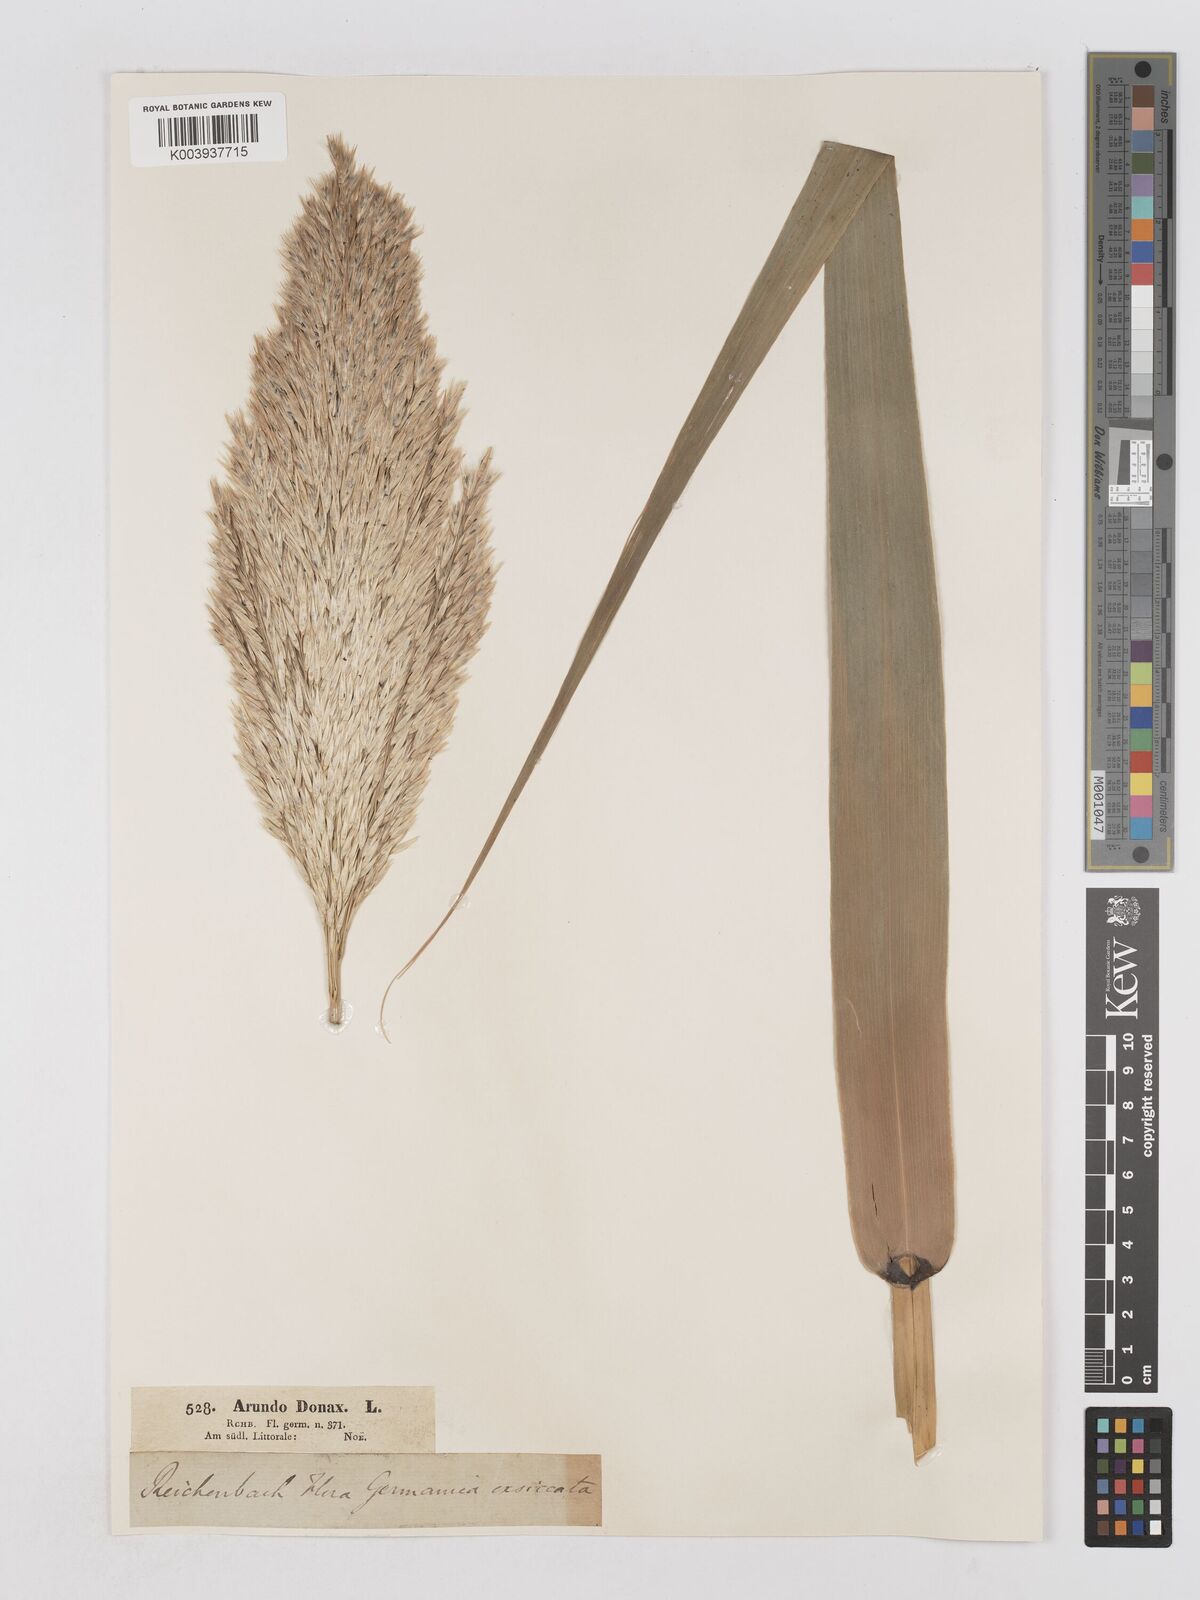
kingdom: Plantae
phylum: Tracheophyta
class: Liliopsida
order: Poales
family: Poaceae
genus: Arundo
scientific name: Arundo donax
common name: Giant reed
